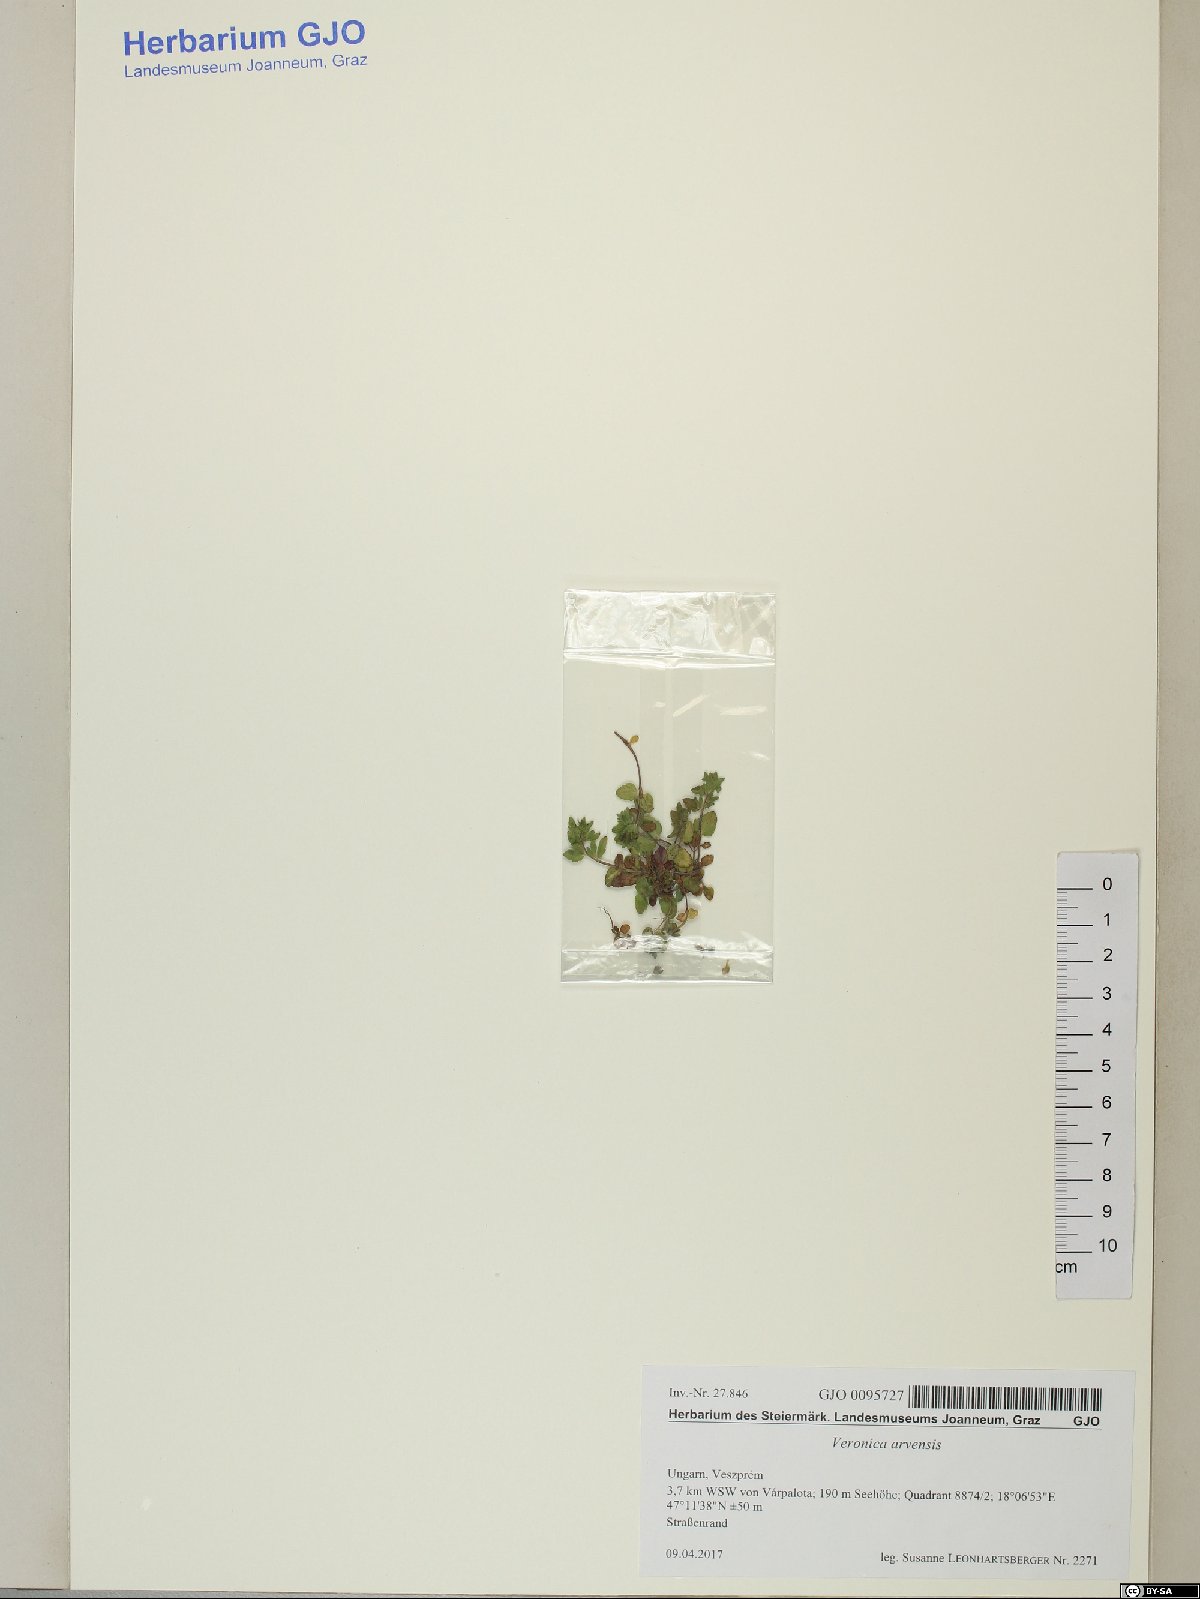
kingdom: Plantae
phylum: Tracheophyta
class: Magnoliopsida
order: Lamiales
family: Plantaginaceae
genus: Veronica
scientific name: Veronica arvensis
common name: Corn speedwell
